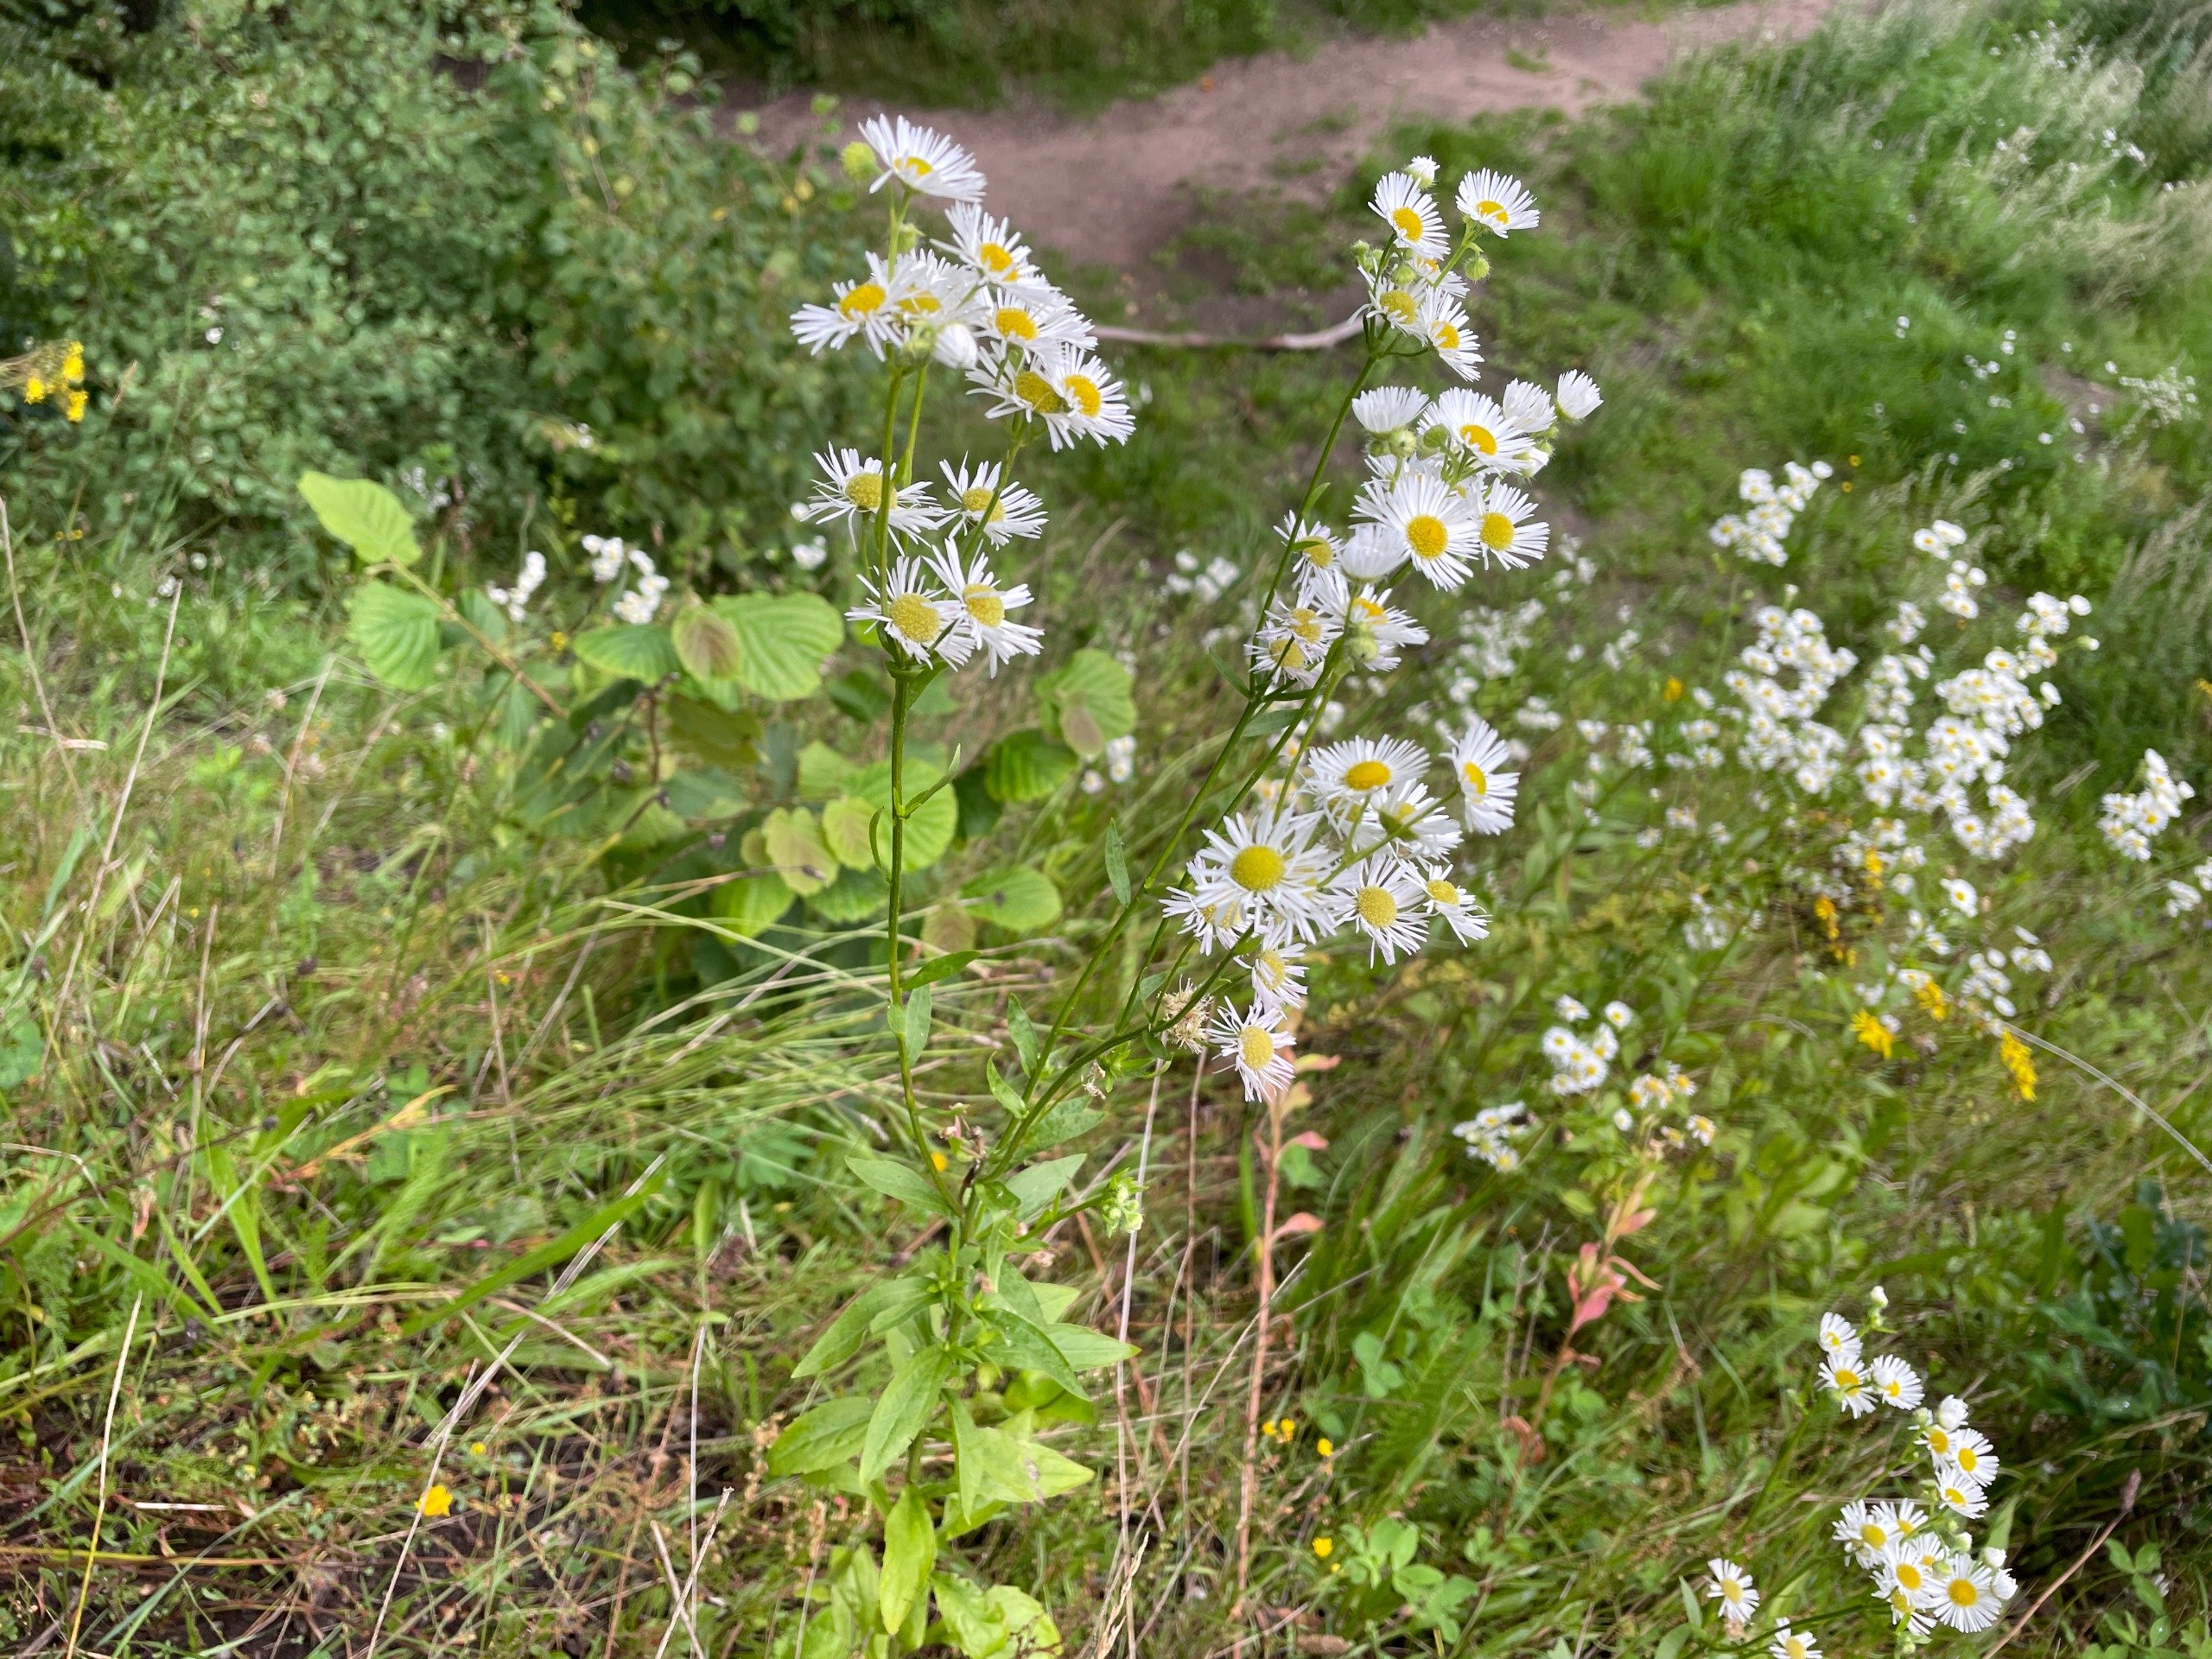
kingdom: Plantae
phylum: Tracheophyta
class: Magnoliopsida
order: Asterales
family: Asteraceae
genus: Erigeron
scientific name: Erigeron annuus
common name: Smalstråle
